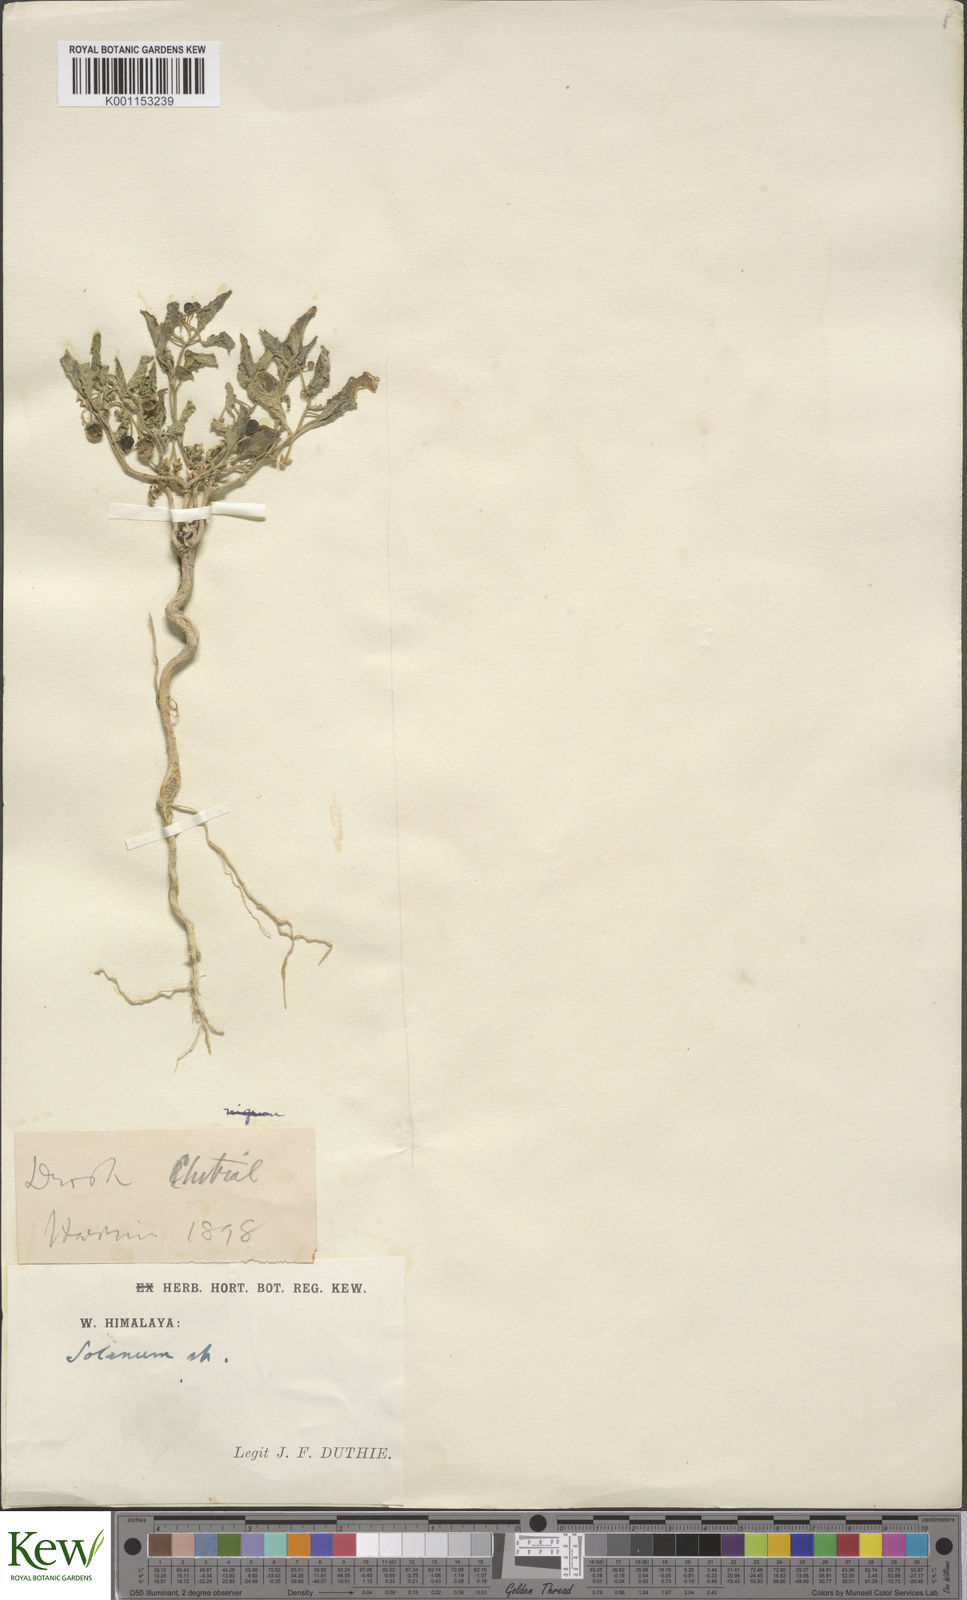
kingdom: Plantae
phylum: Tracheophyta
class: Magnoliopsida
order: Solanales
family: Solanaceae
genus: Solanum
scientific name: Solanum
